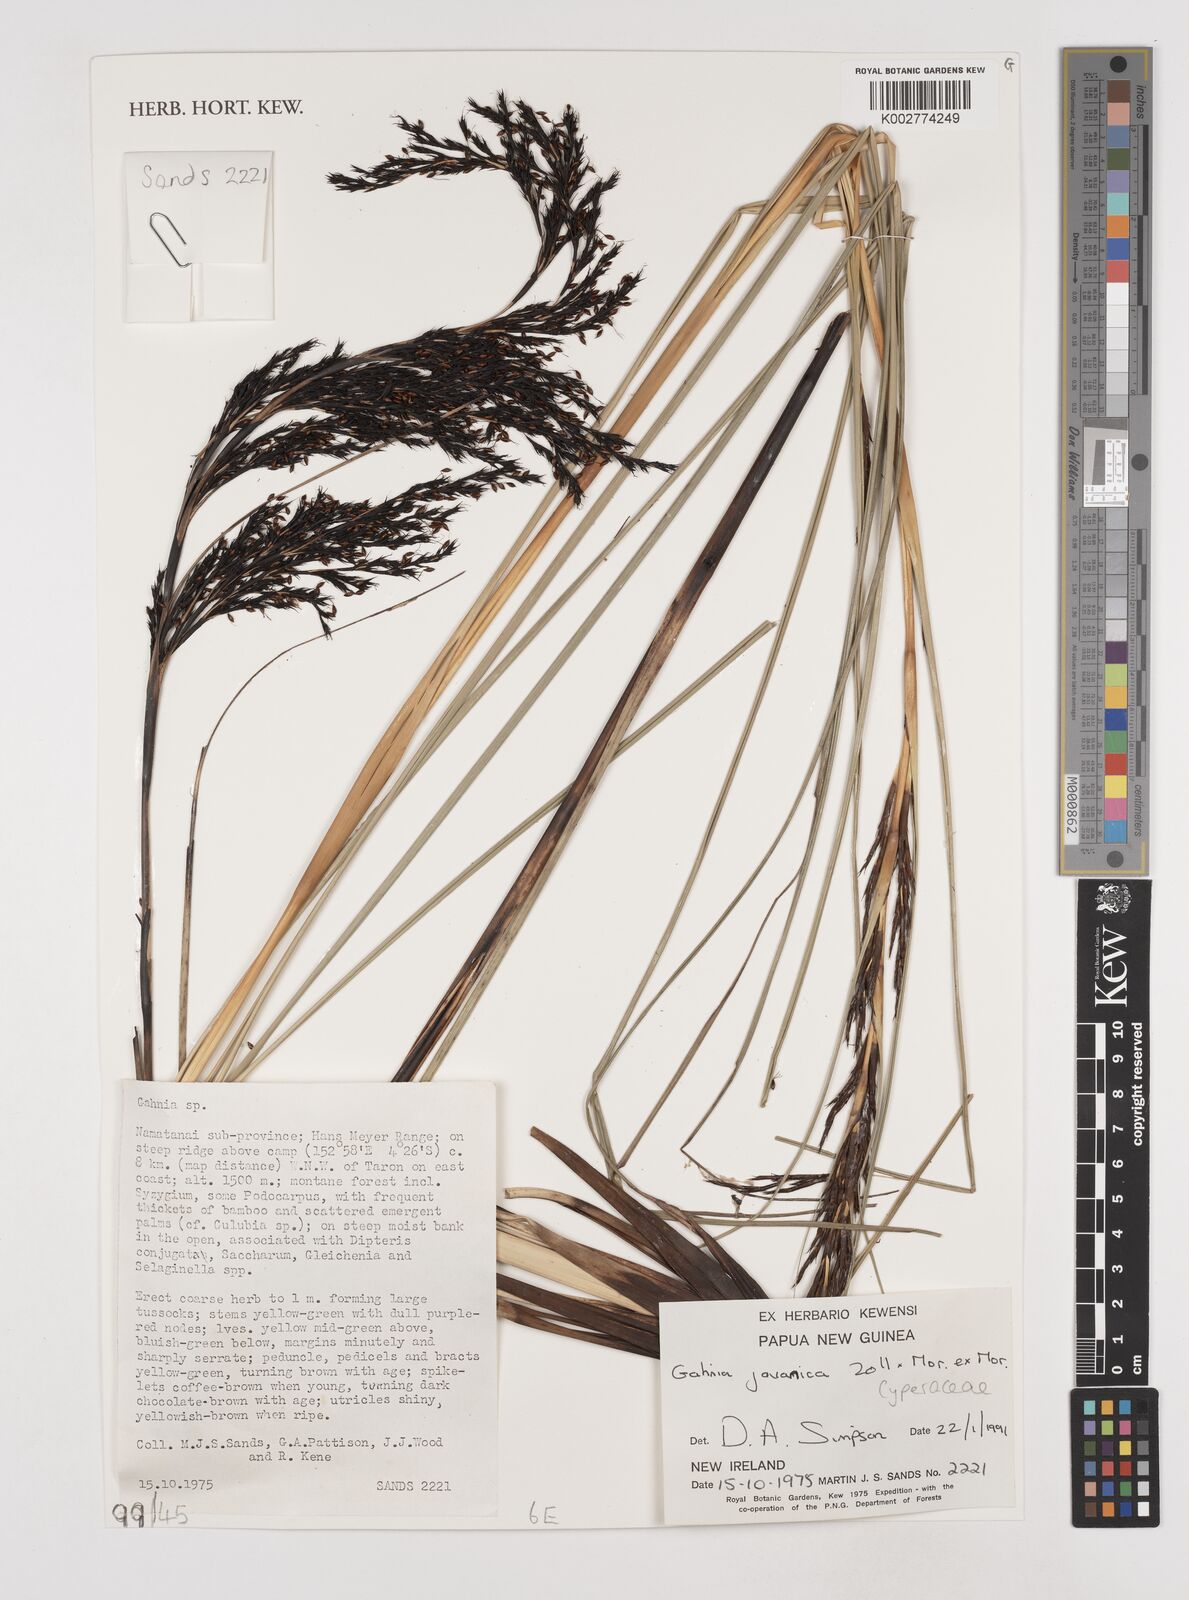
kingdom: Plantae
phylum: Tracheophyta
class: Liliopsida
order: Poales
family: Cyperaceae
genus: Gahnia
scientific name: Gahnia javanica
